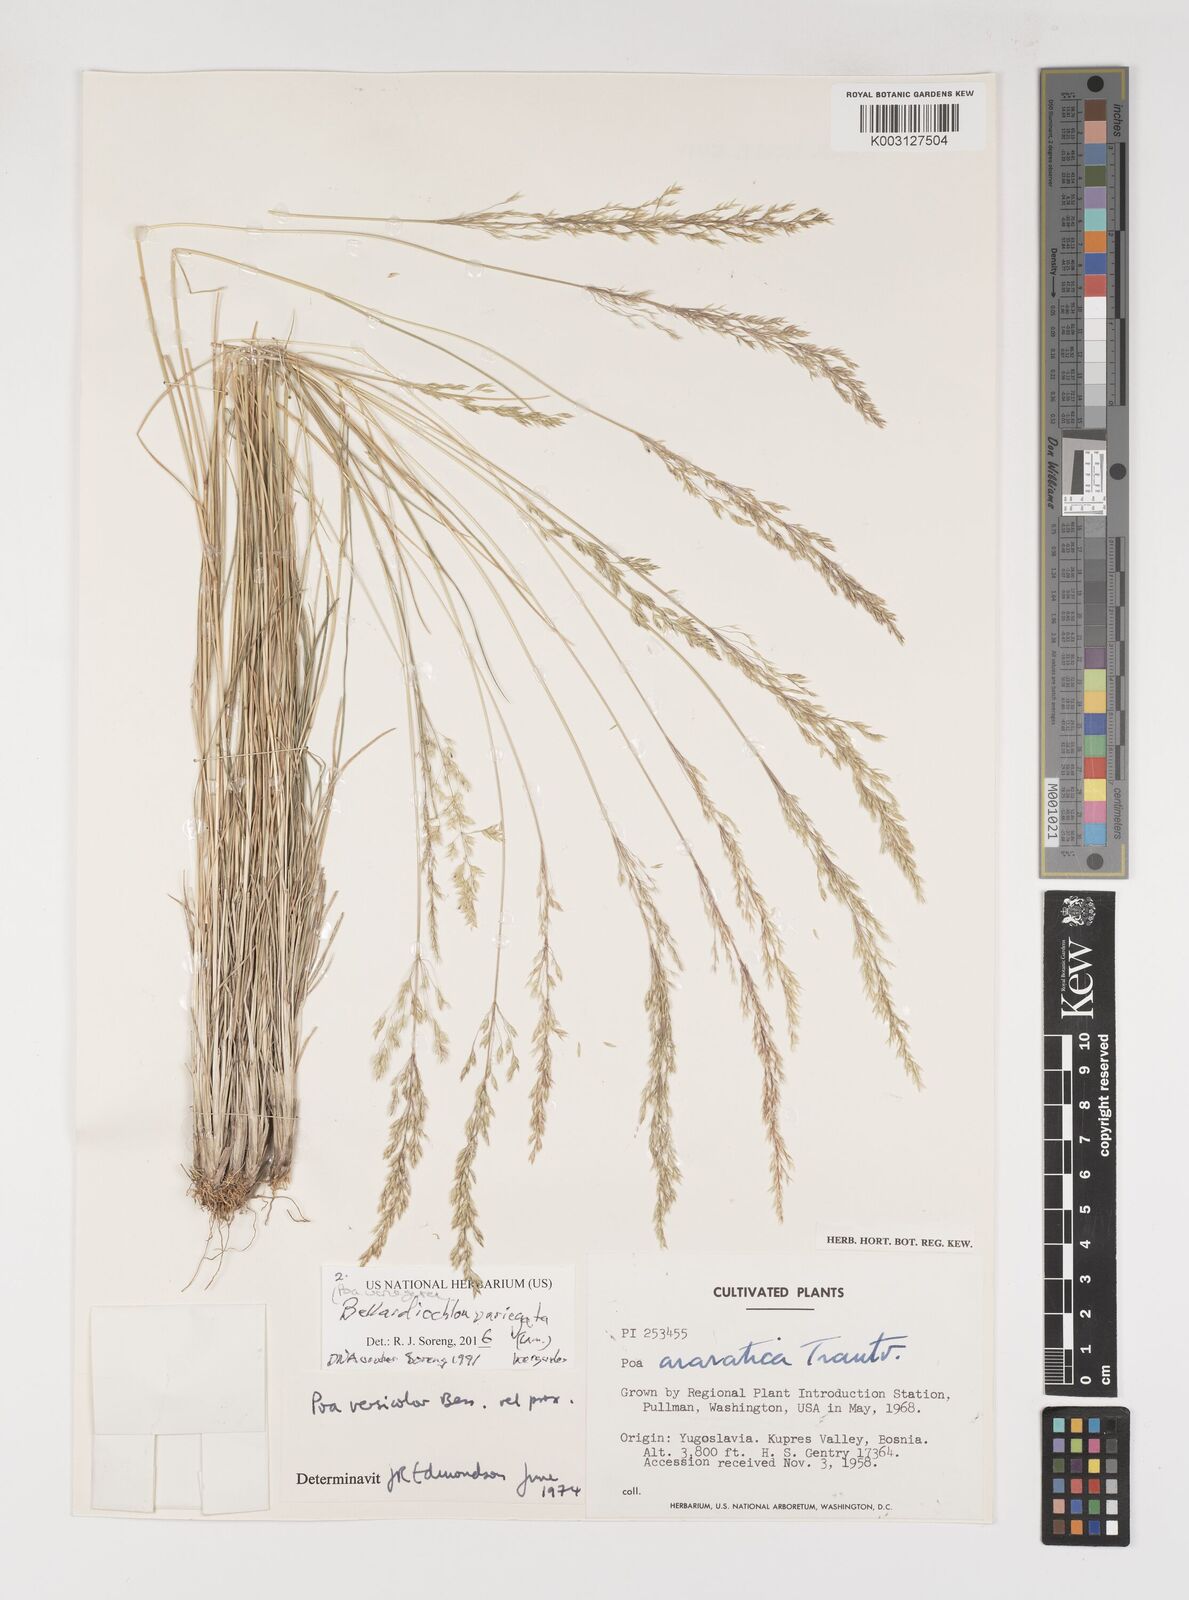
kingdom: Plantae
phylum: Tracheophyta
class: Liliopsida
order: Poales
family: Poaceae
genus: Bellardiochloa
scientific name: Bellardiochloa variegata
